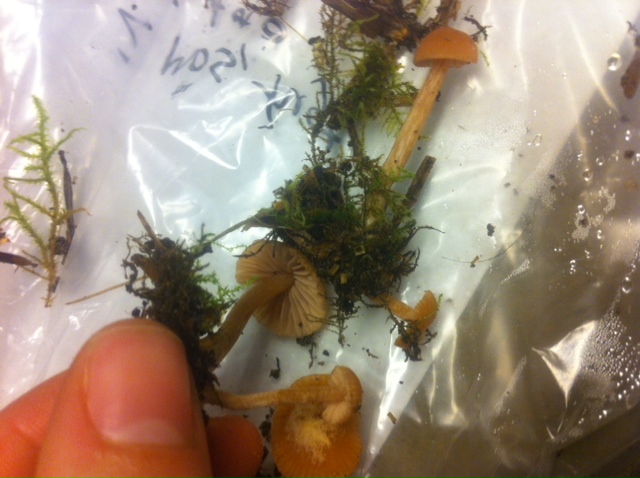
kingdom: Fungi
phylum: Basidiomycota
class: Agaricomycetes
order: Agaricales
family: Hydnangiaceae
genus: Laccaria
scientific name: Laccaria laccata
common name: rød ametysthat
